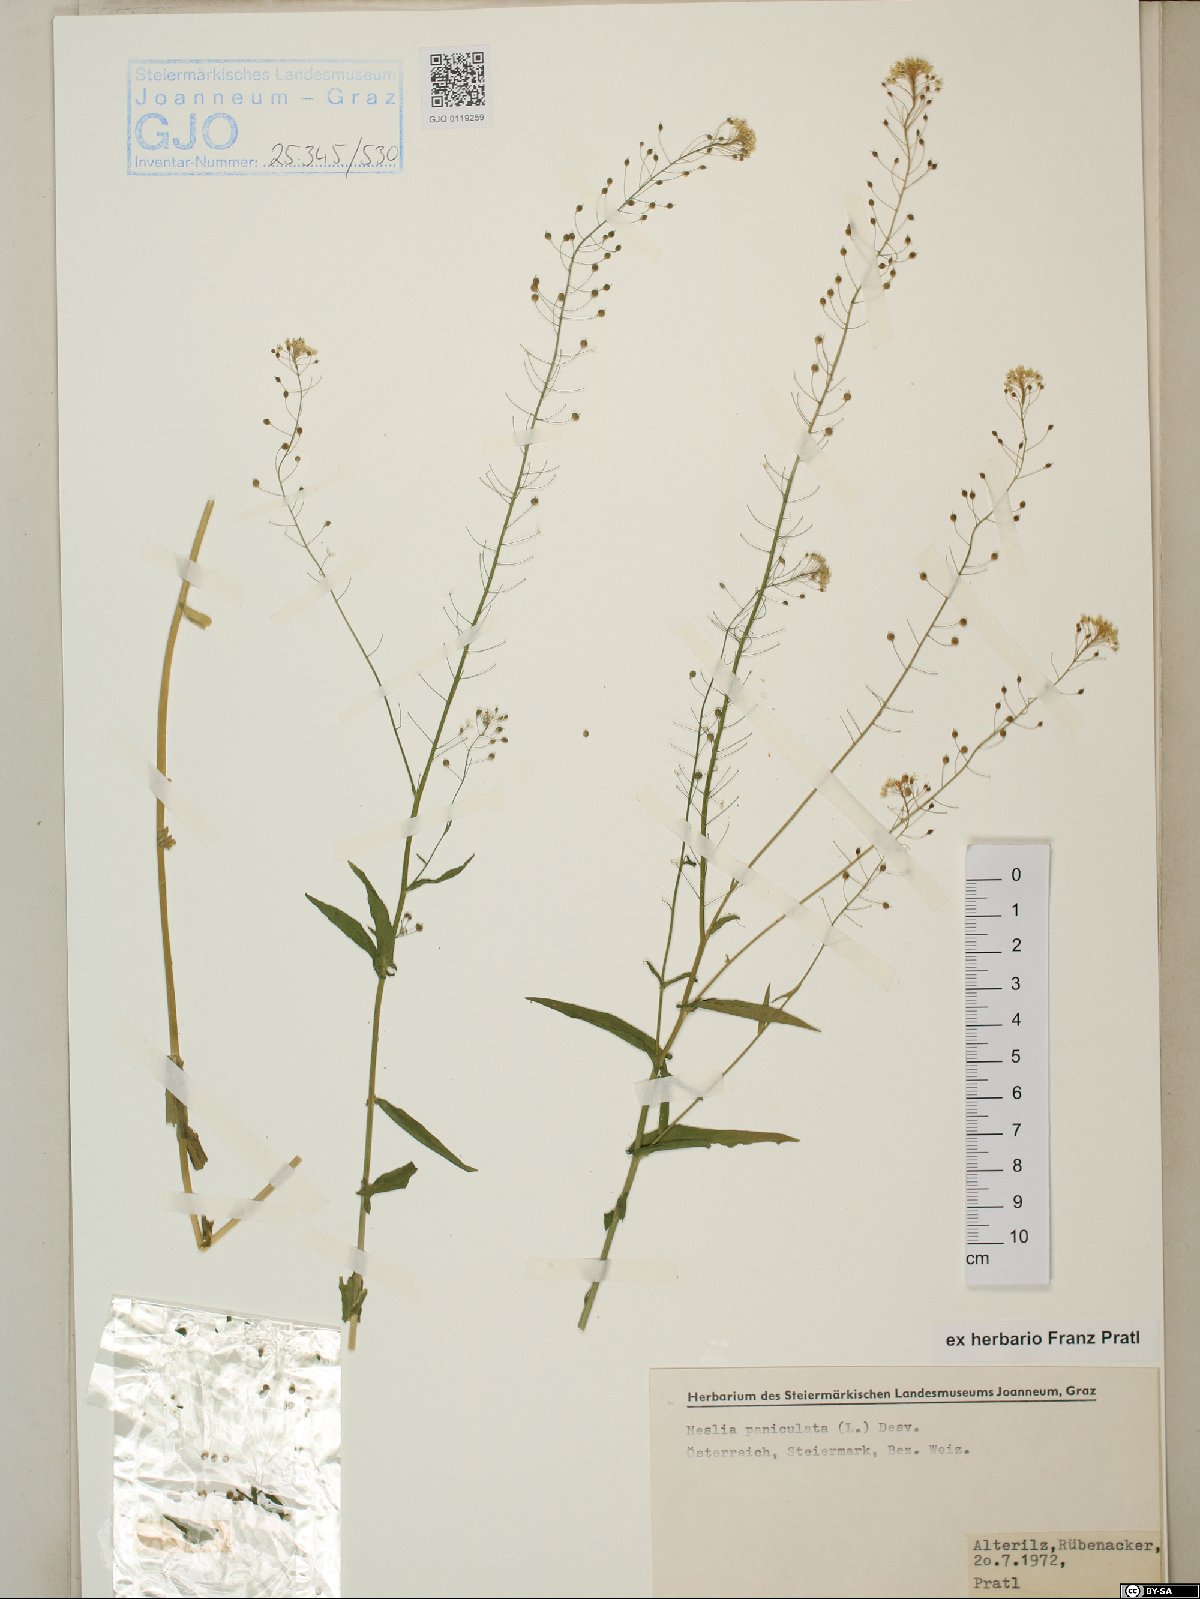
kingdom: Plantae
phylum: Tracheophyta
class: Magnoliopsida
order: Brassicales
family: Brassicaceae
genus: Neslia
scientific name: Neslia paniculata
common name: Ball mustard
